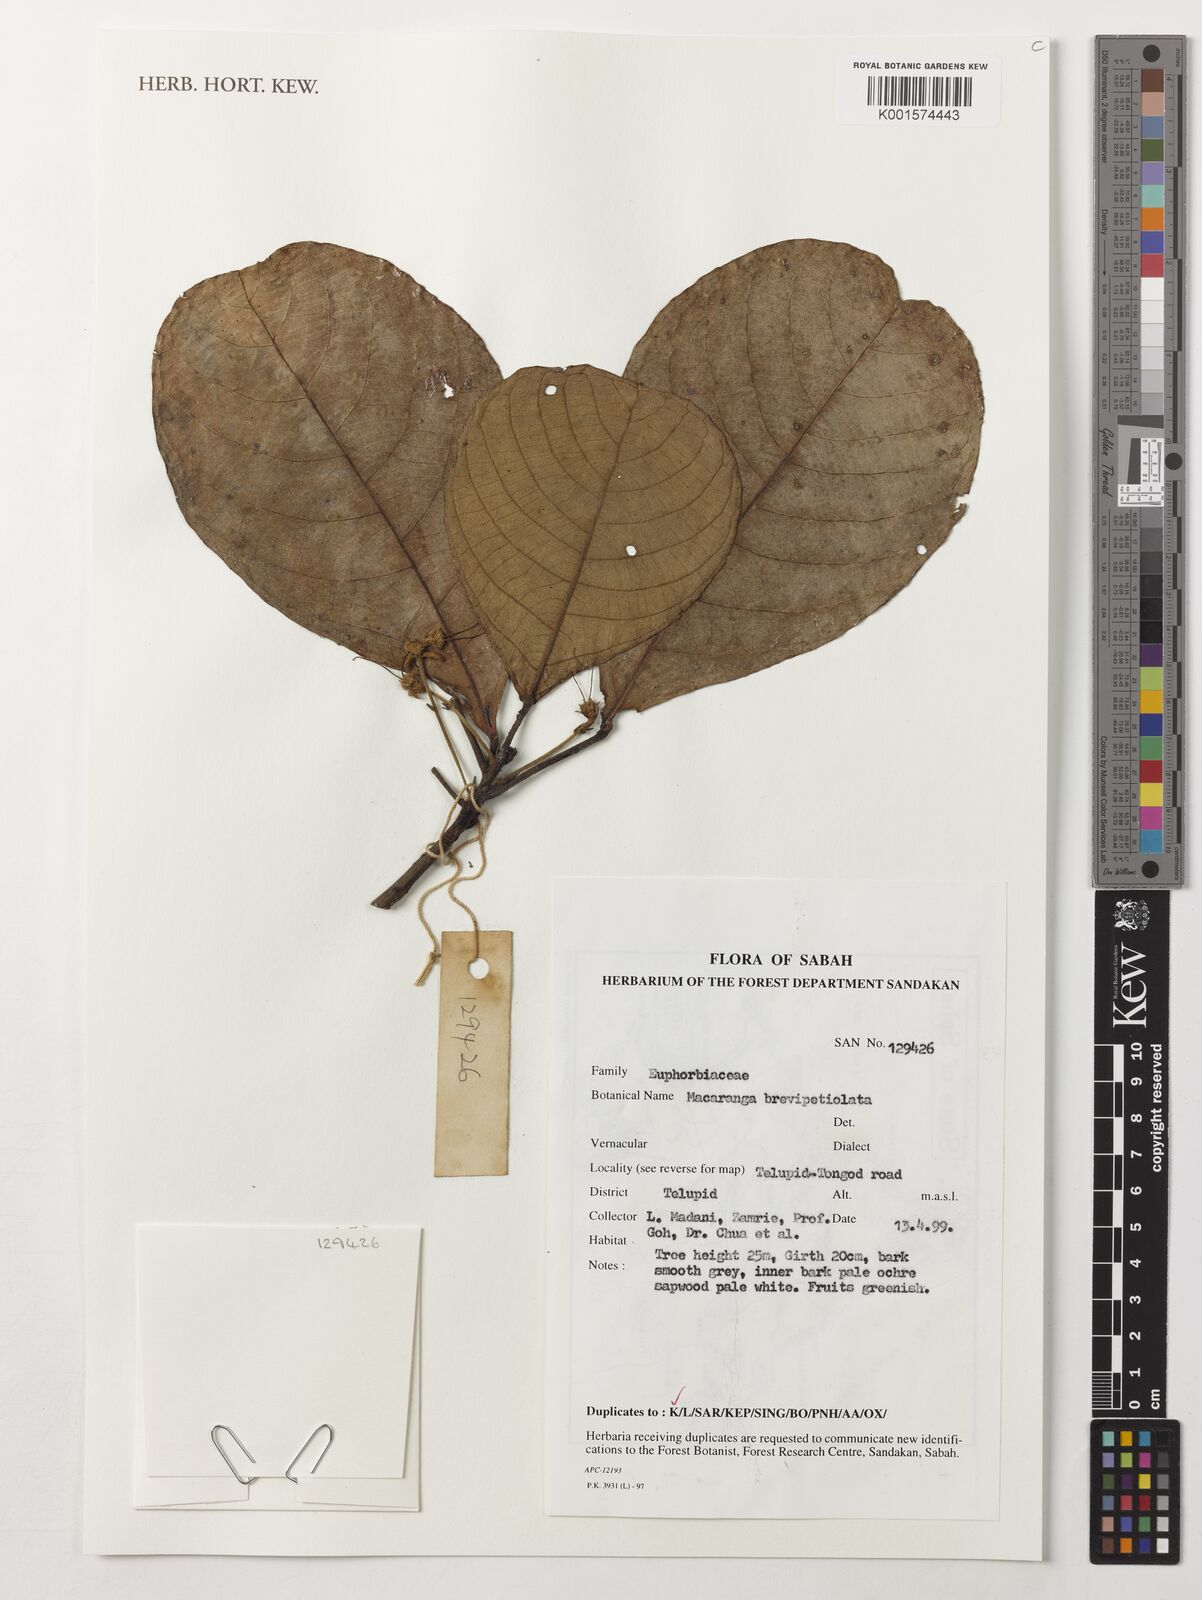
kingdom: Plantae
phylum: Tracheophyta
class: Magnoliopsida
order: Malpighiales
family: Euphorbiaceae
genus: Macaranga
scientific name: Macaranga brevipetiolata
